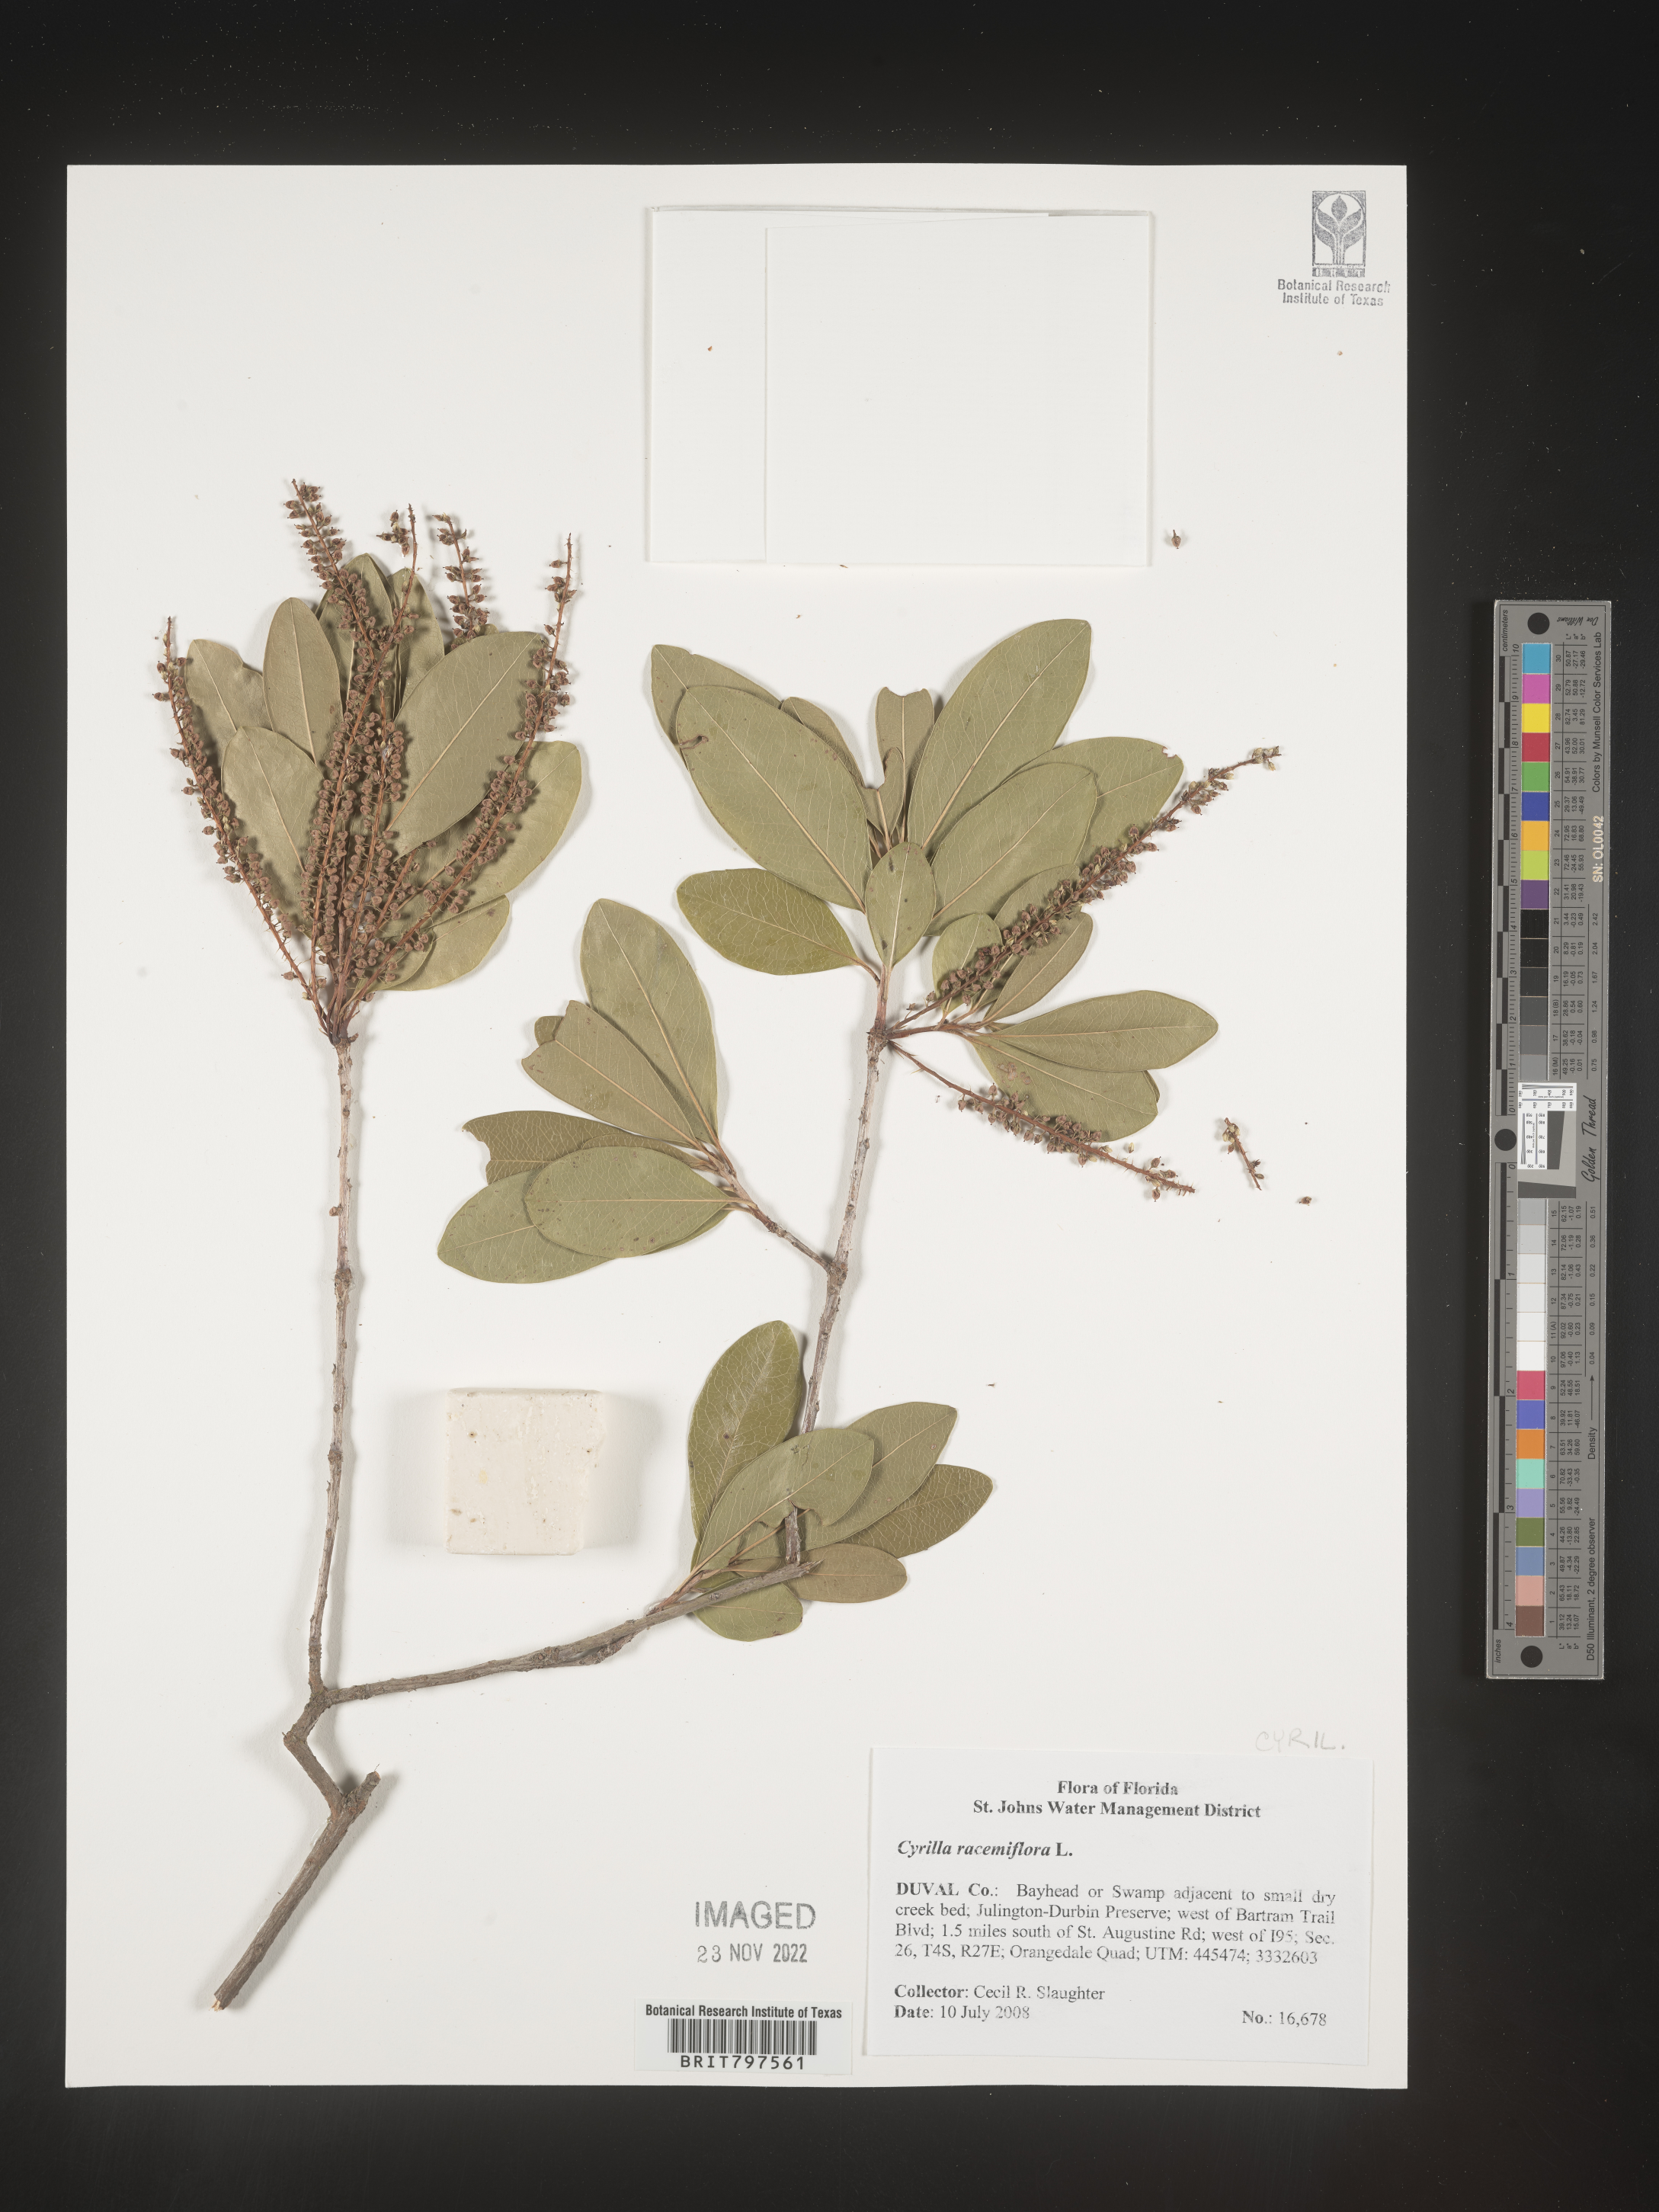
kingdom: Plantae
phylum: Tracheophyta
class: Magnoliopsida
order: Ericales
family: Cyrillaceae
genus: Cyrilla
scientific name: Cyrilla racemiflora
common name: Black titi
